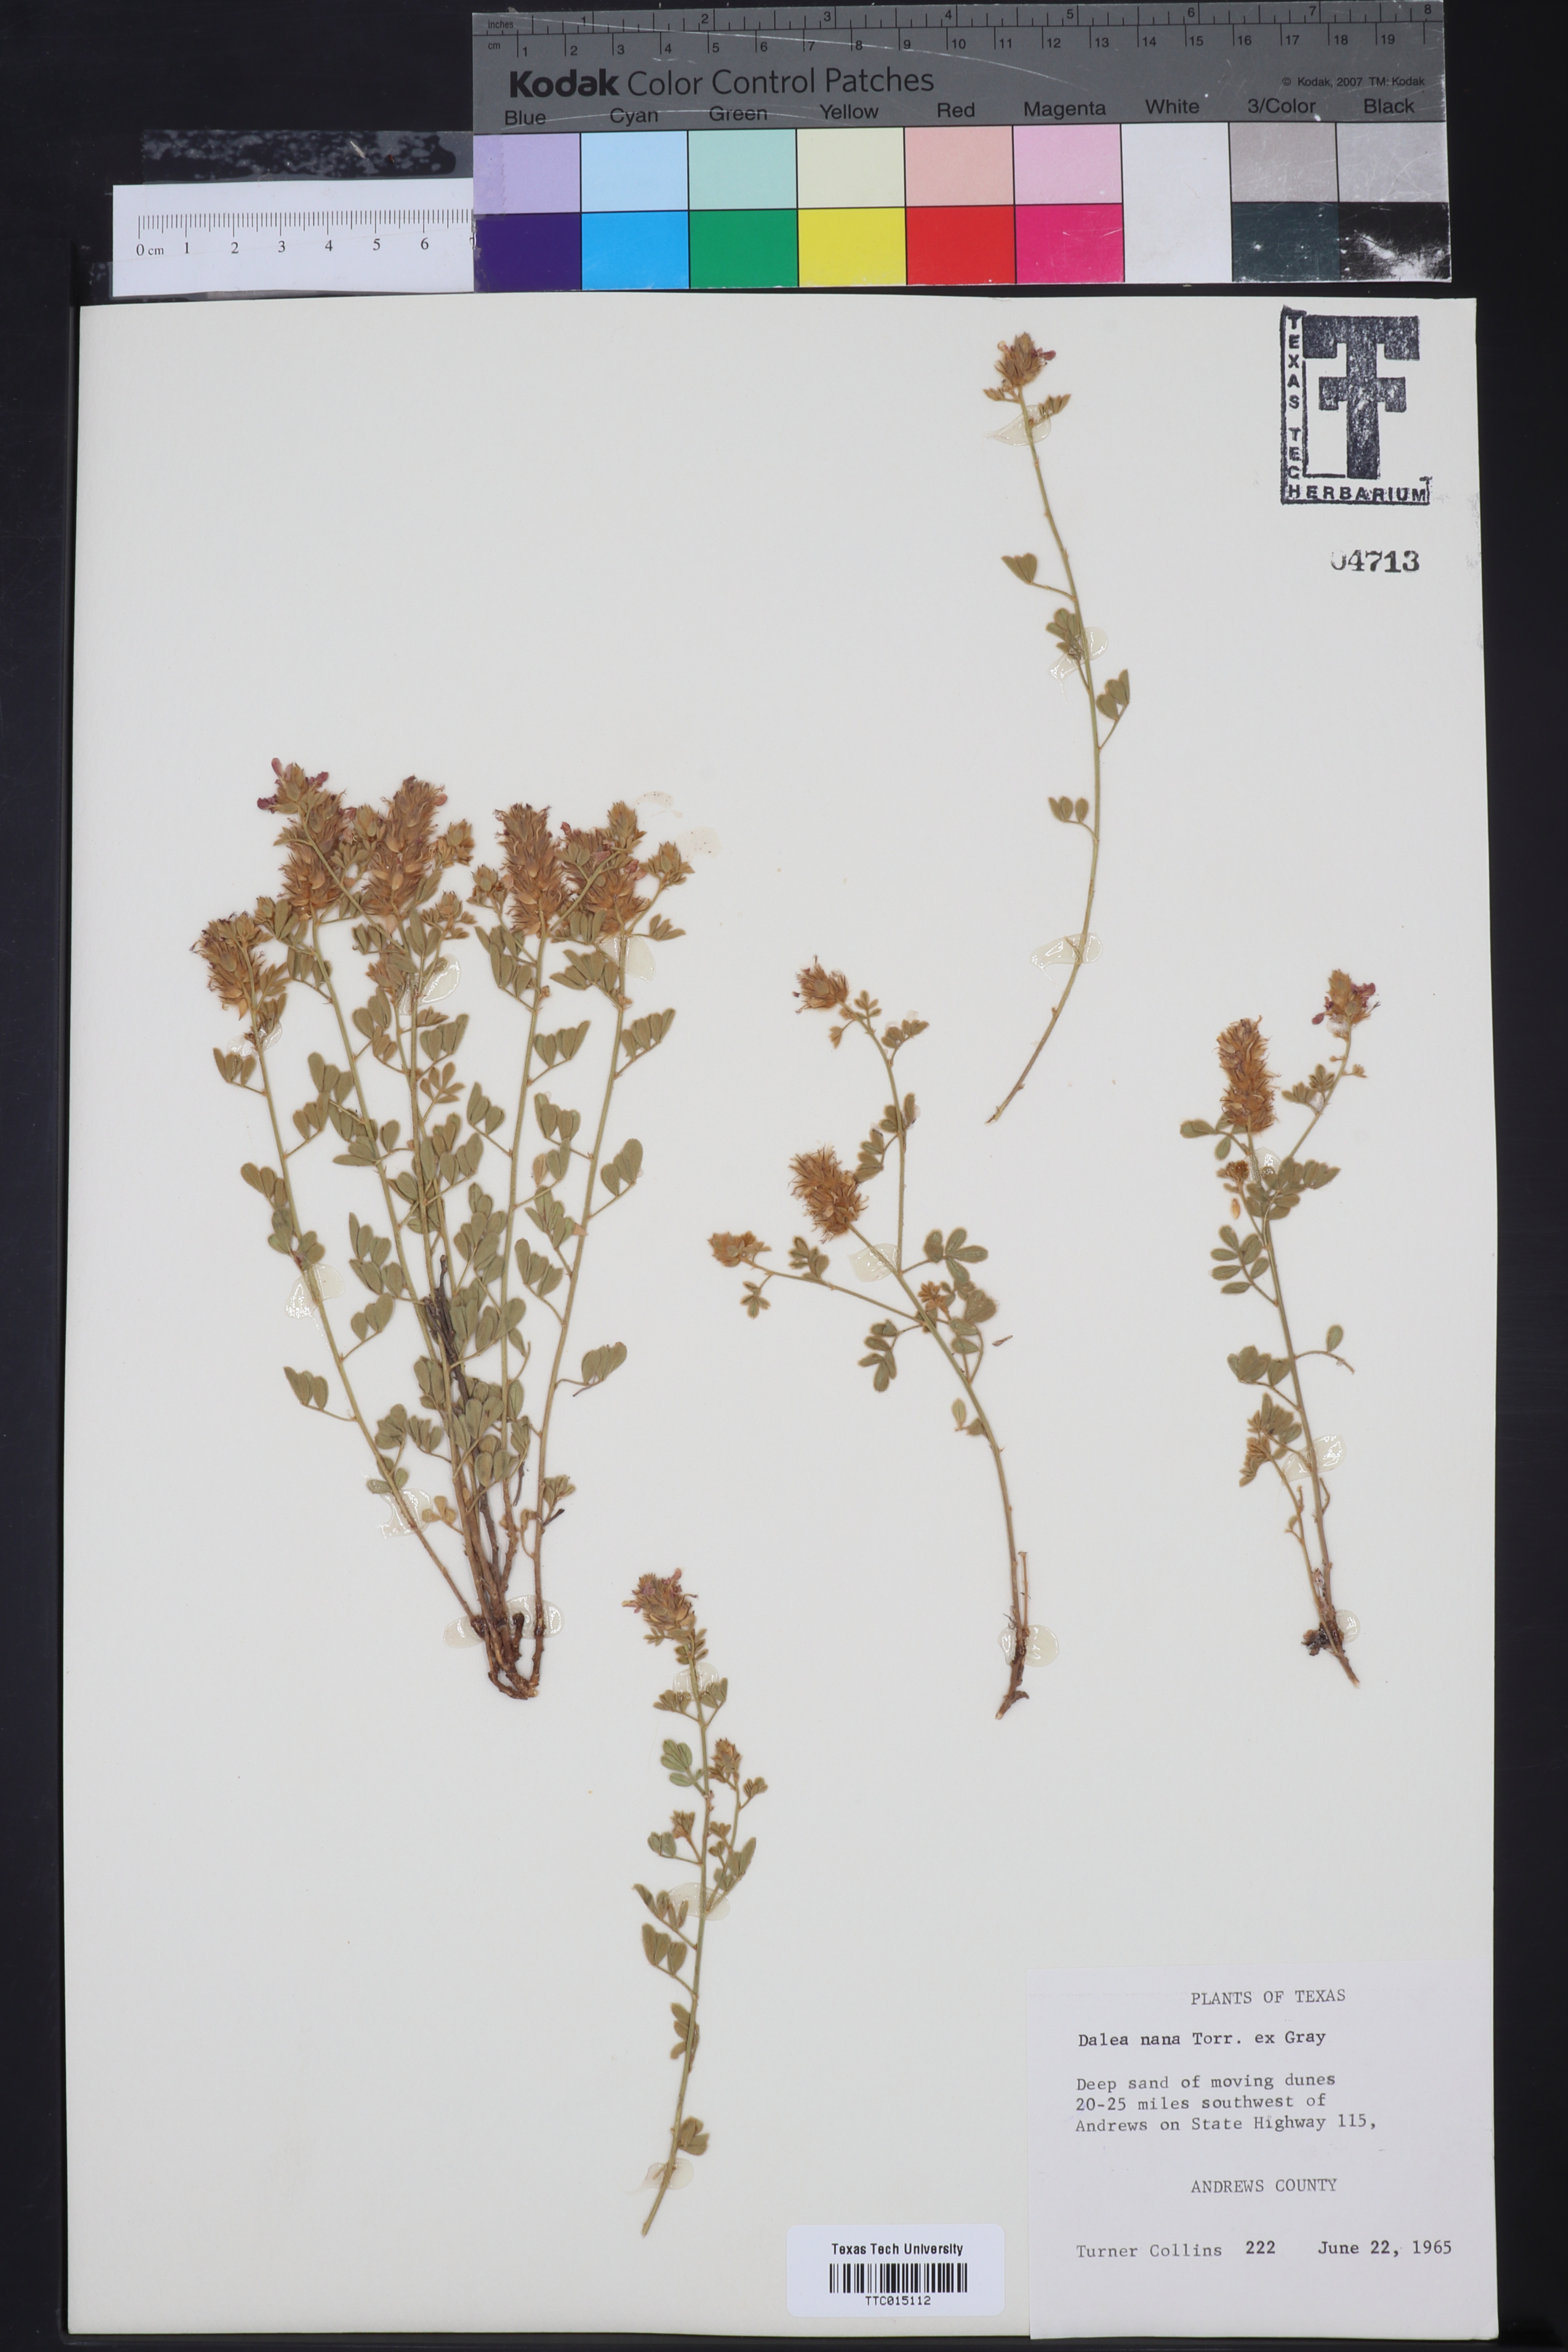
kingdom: Plantae
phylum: Tracheophyta
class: Magnoliopsida
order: Fabales
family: Fabaceae
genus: Dalea
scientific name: Dalea nana
